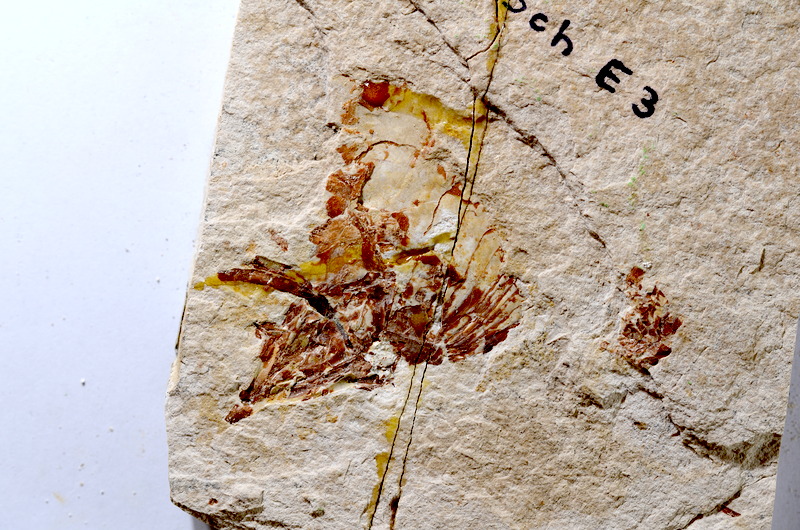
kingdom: Animalia
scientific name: Animalia
